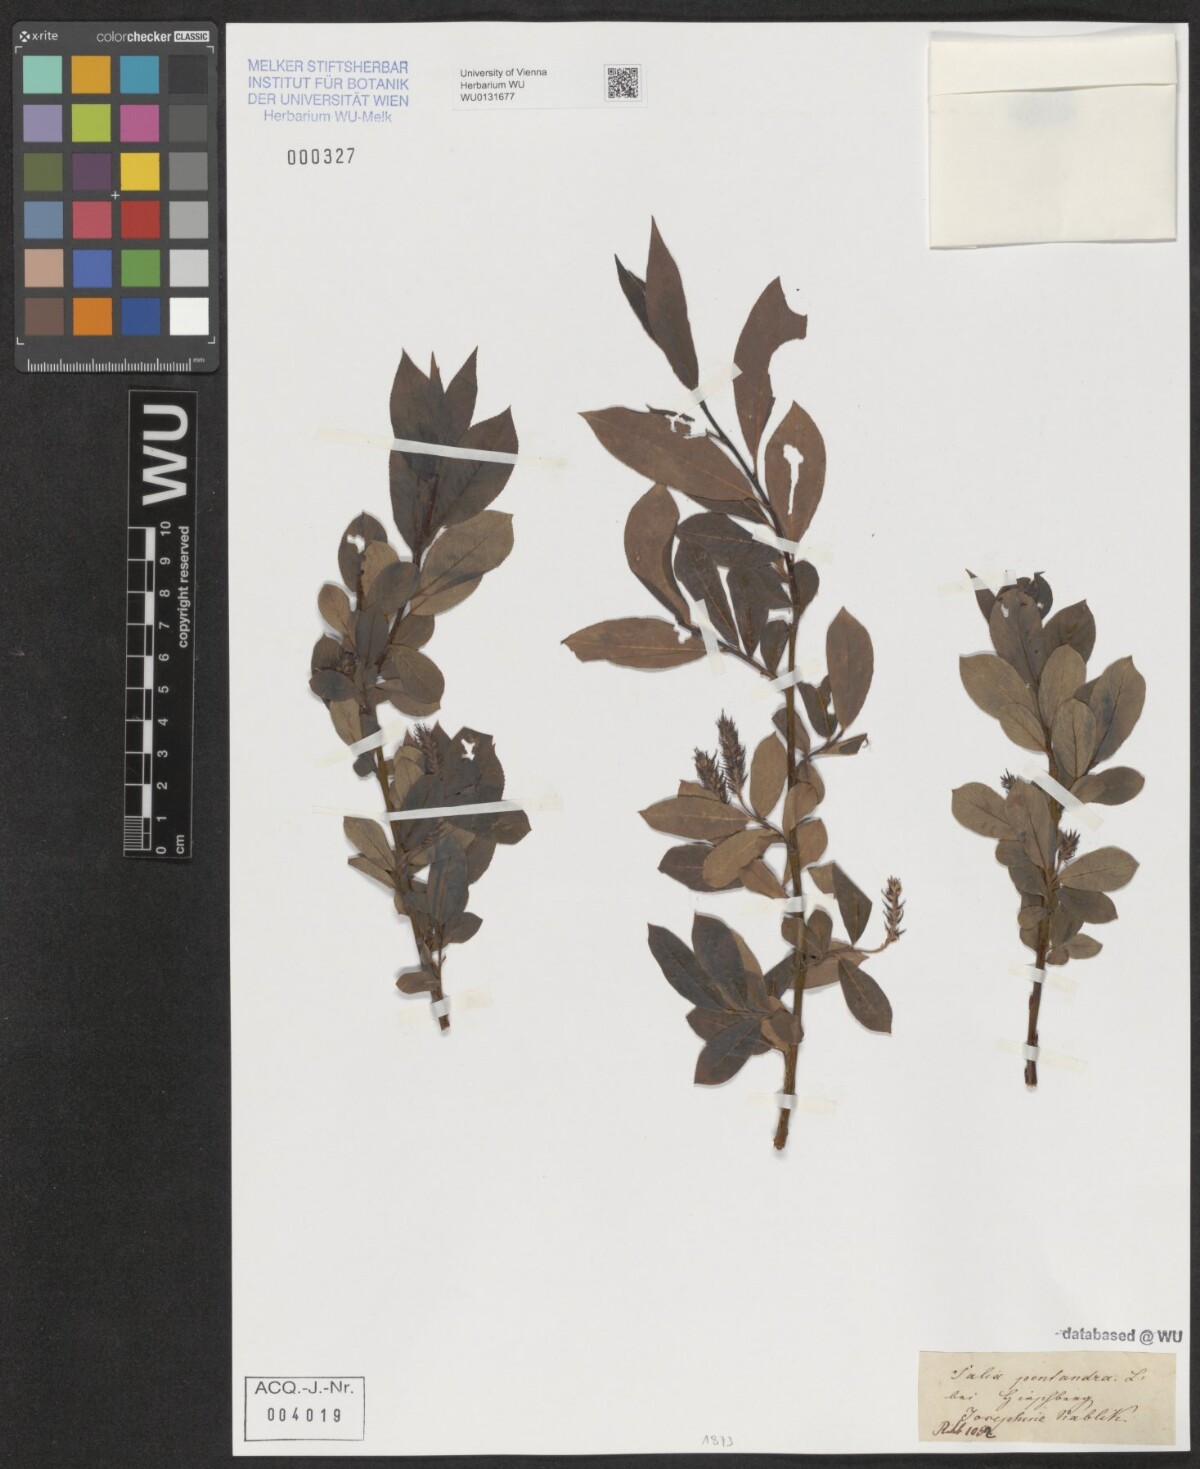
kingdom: Plantae
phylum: Tracheophyta
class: Magnoliopsida
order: Malpighiales
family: Salicaceae
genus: Salix
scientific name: Salix pentandra
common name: Bay willow
